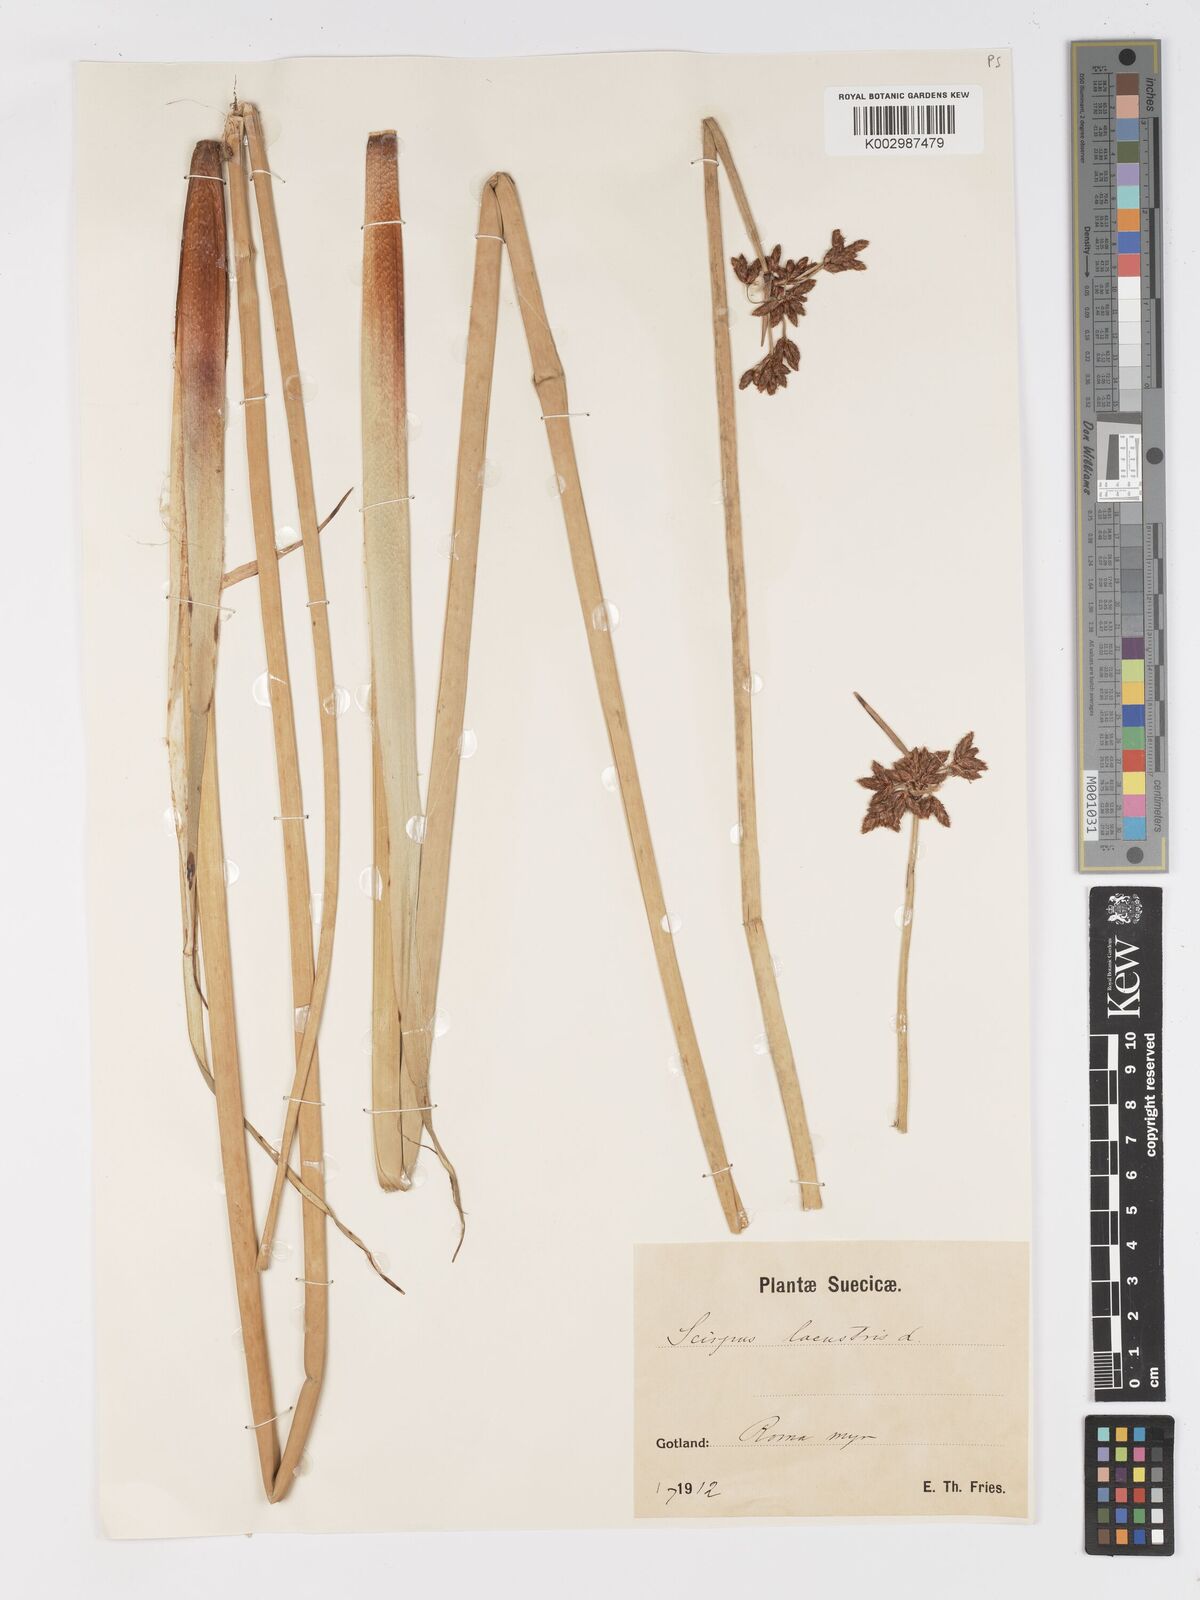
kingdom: Plantae
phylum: Tracheophyta
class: Liliopsida
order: Poales
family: Cyperaceae
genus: Schoenoplectus
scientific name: Schoenoplectus lacustris
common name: Common club-rush
